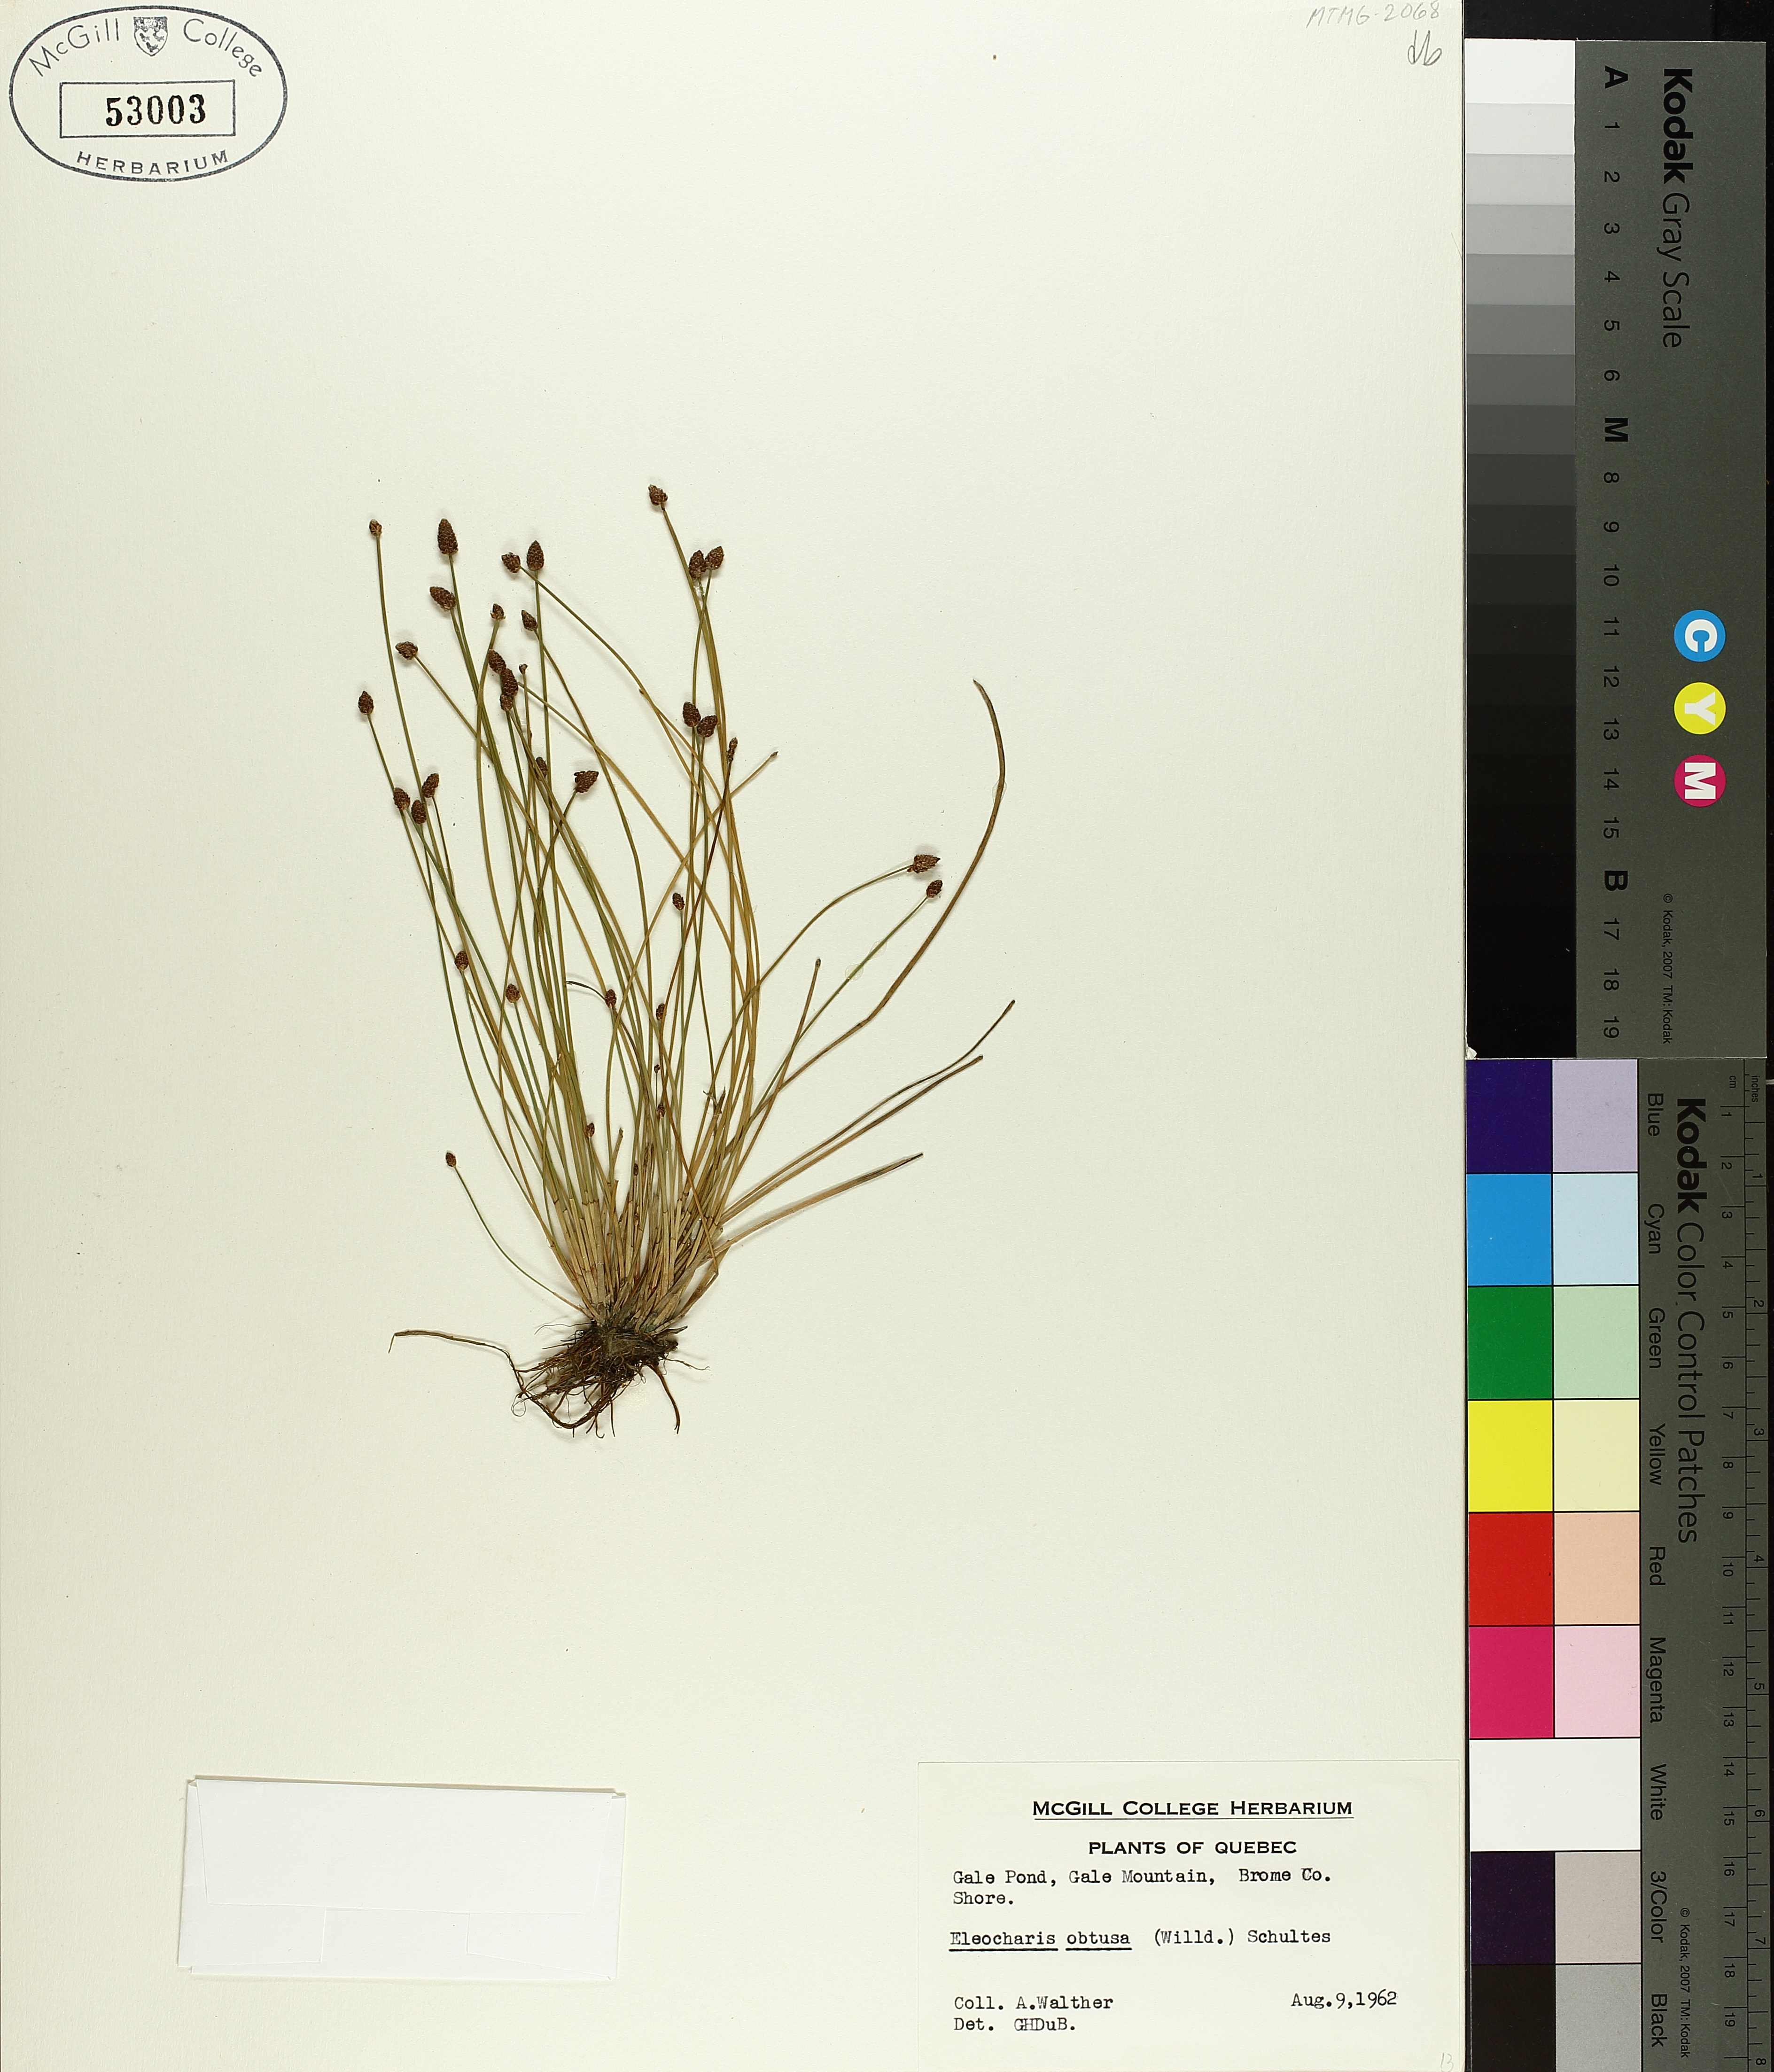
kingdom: Plantae
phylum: Tracheophyta
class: Liliopsida
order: Poales
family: Cyperaceae
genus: Eleocharis
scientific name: Eleocharis obtusa
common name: Blunt spikerush
